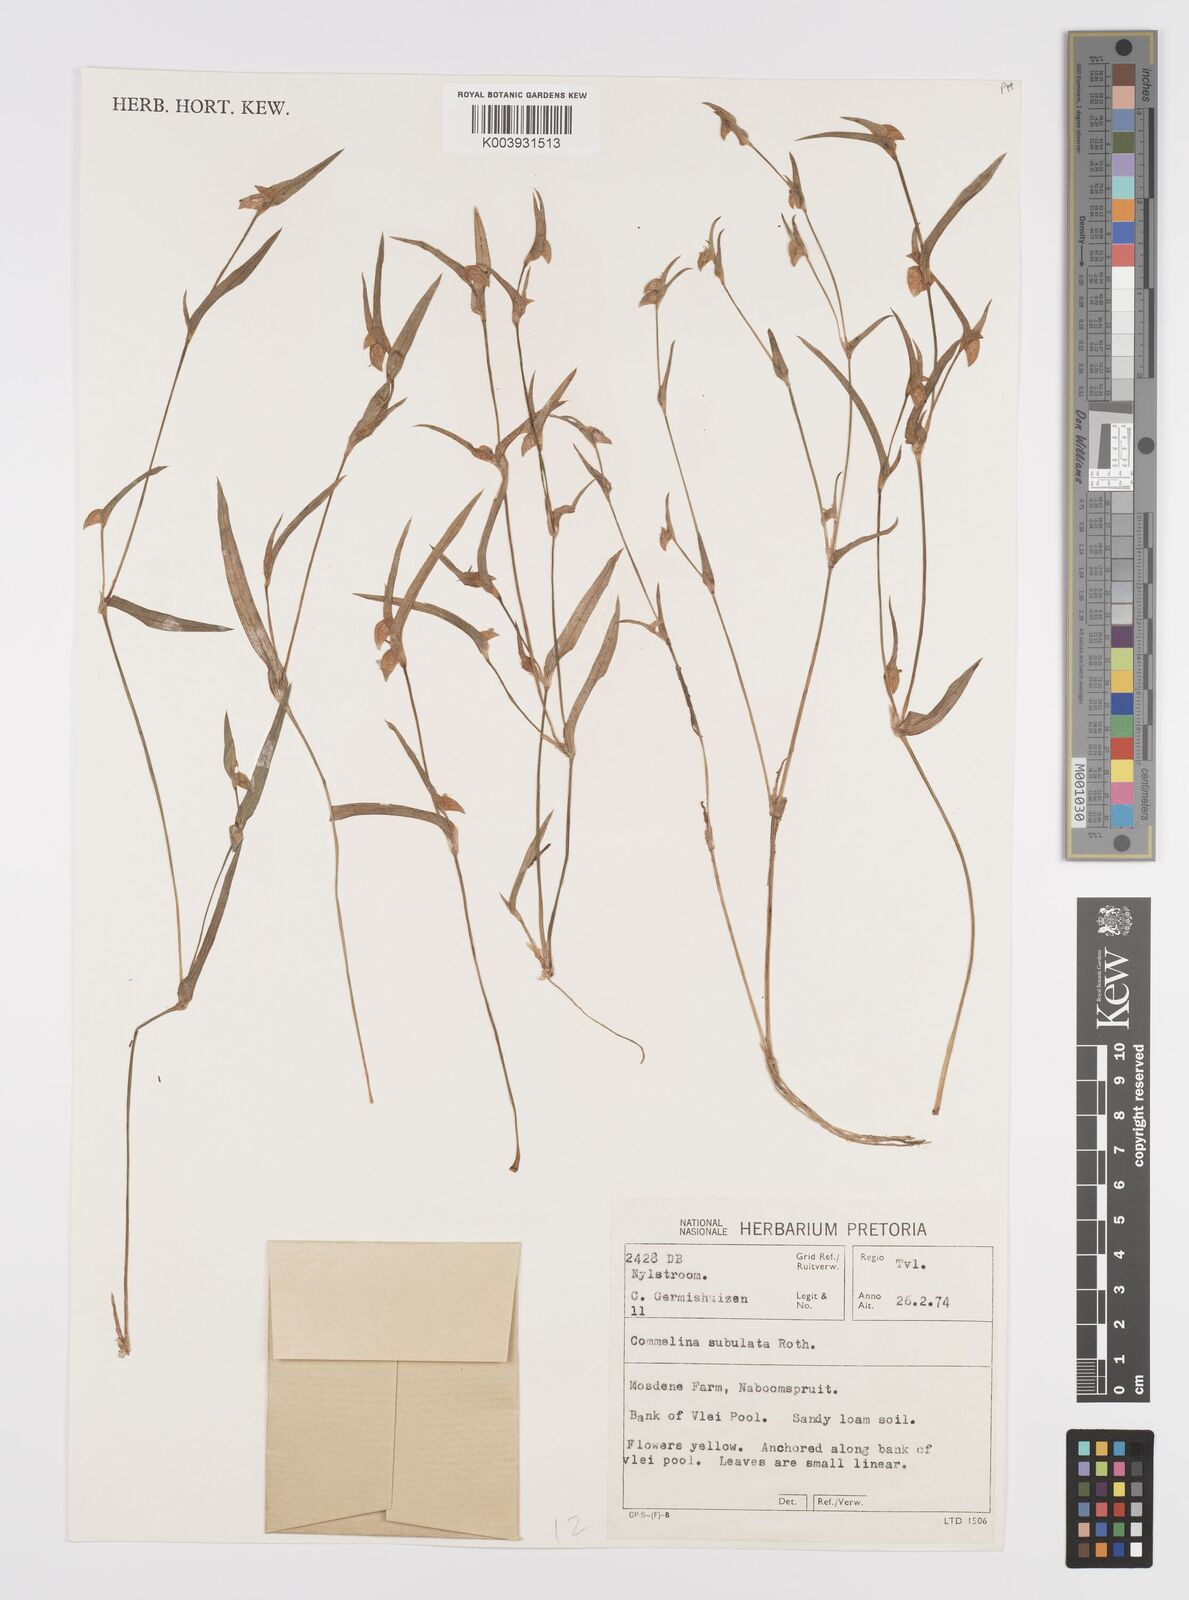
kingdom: Plantae
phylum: Tracheophyta
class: Liliopsida
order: Commelinales
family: Commelinaceae
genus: Commelina
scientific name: Commelina subulata
